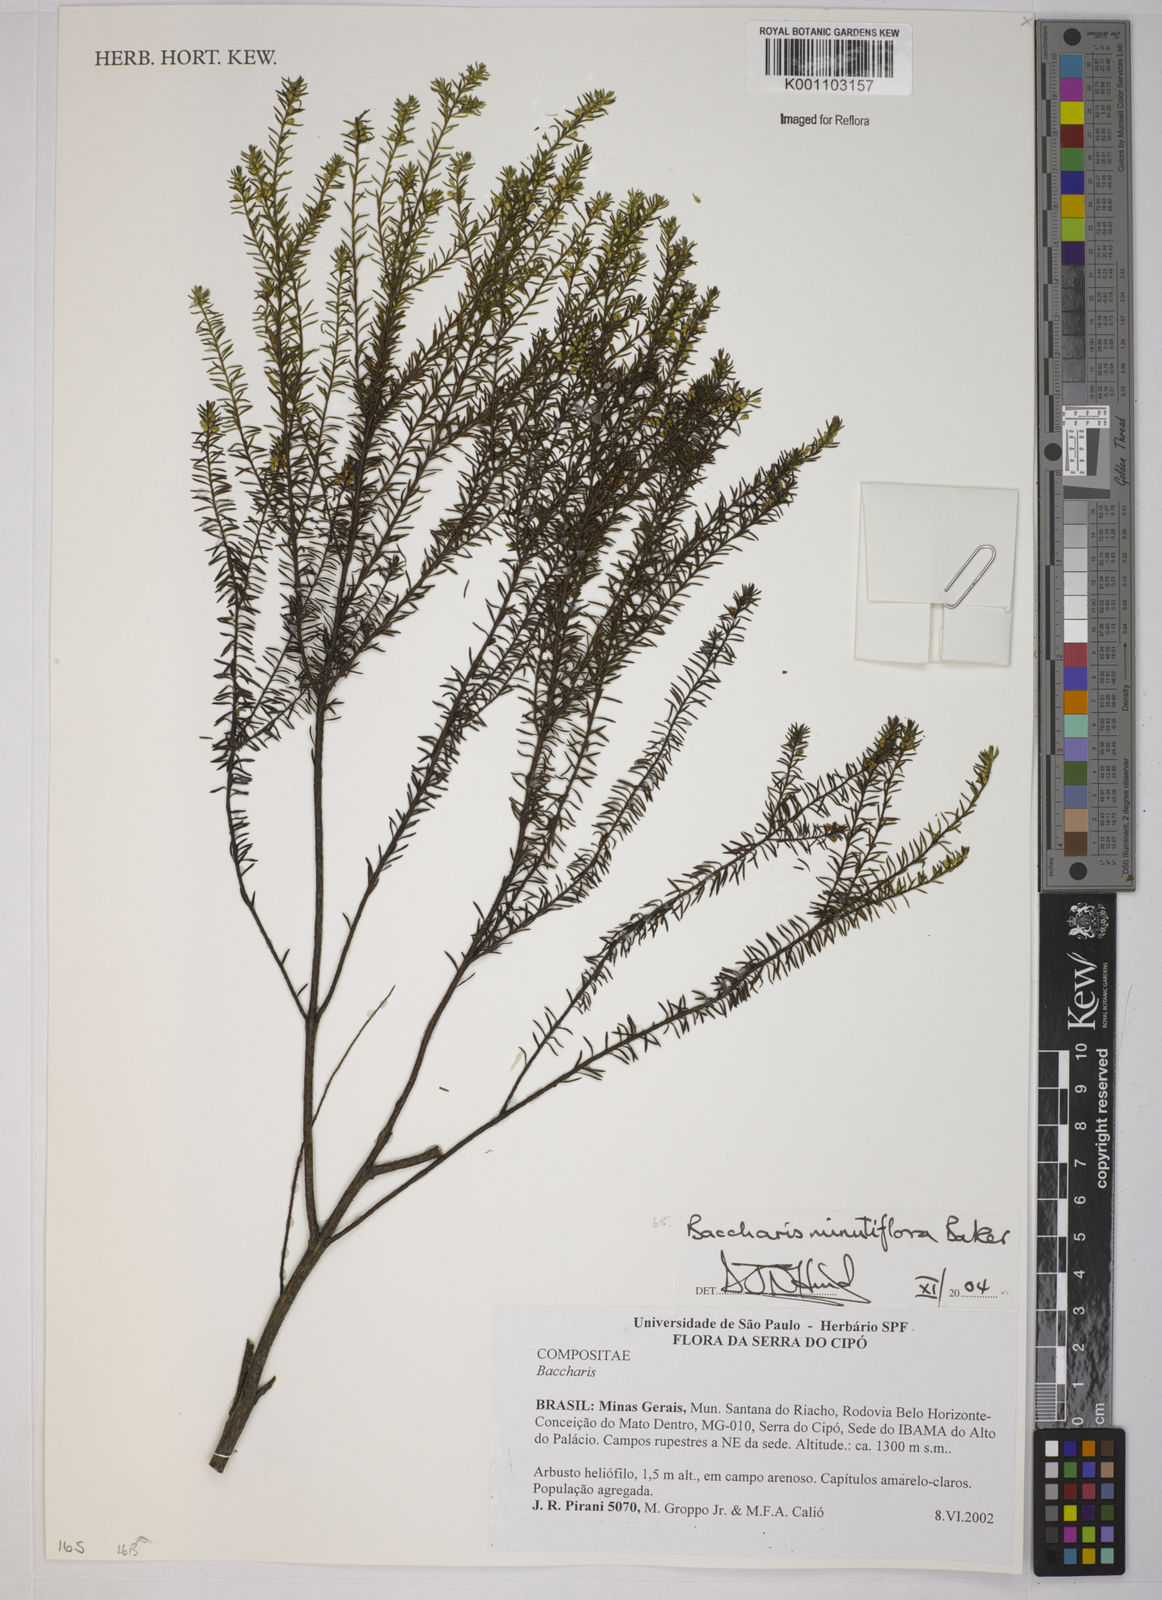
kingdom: Plantae
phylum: Tracheophyta
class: Magnoliopsida
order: Asterales
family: Asteraceae
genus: Baccharis
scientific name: Baccharis minutiflora
